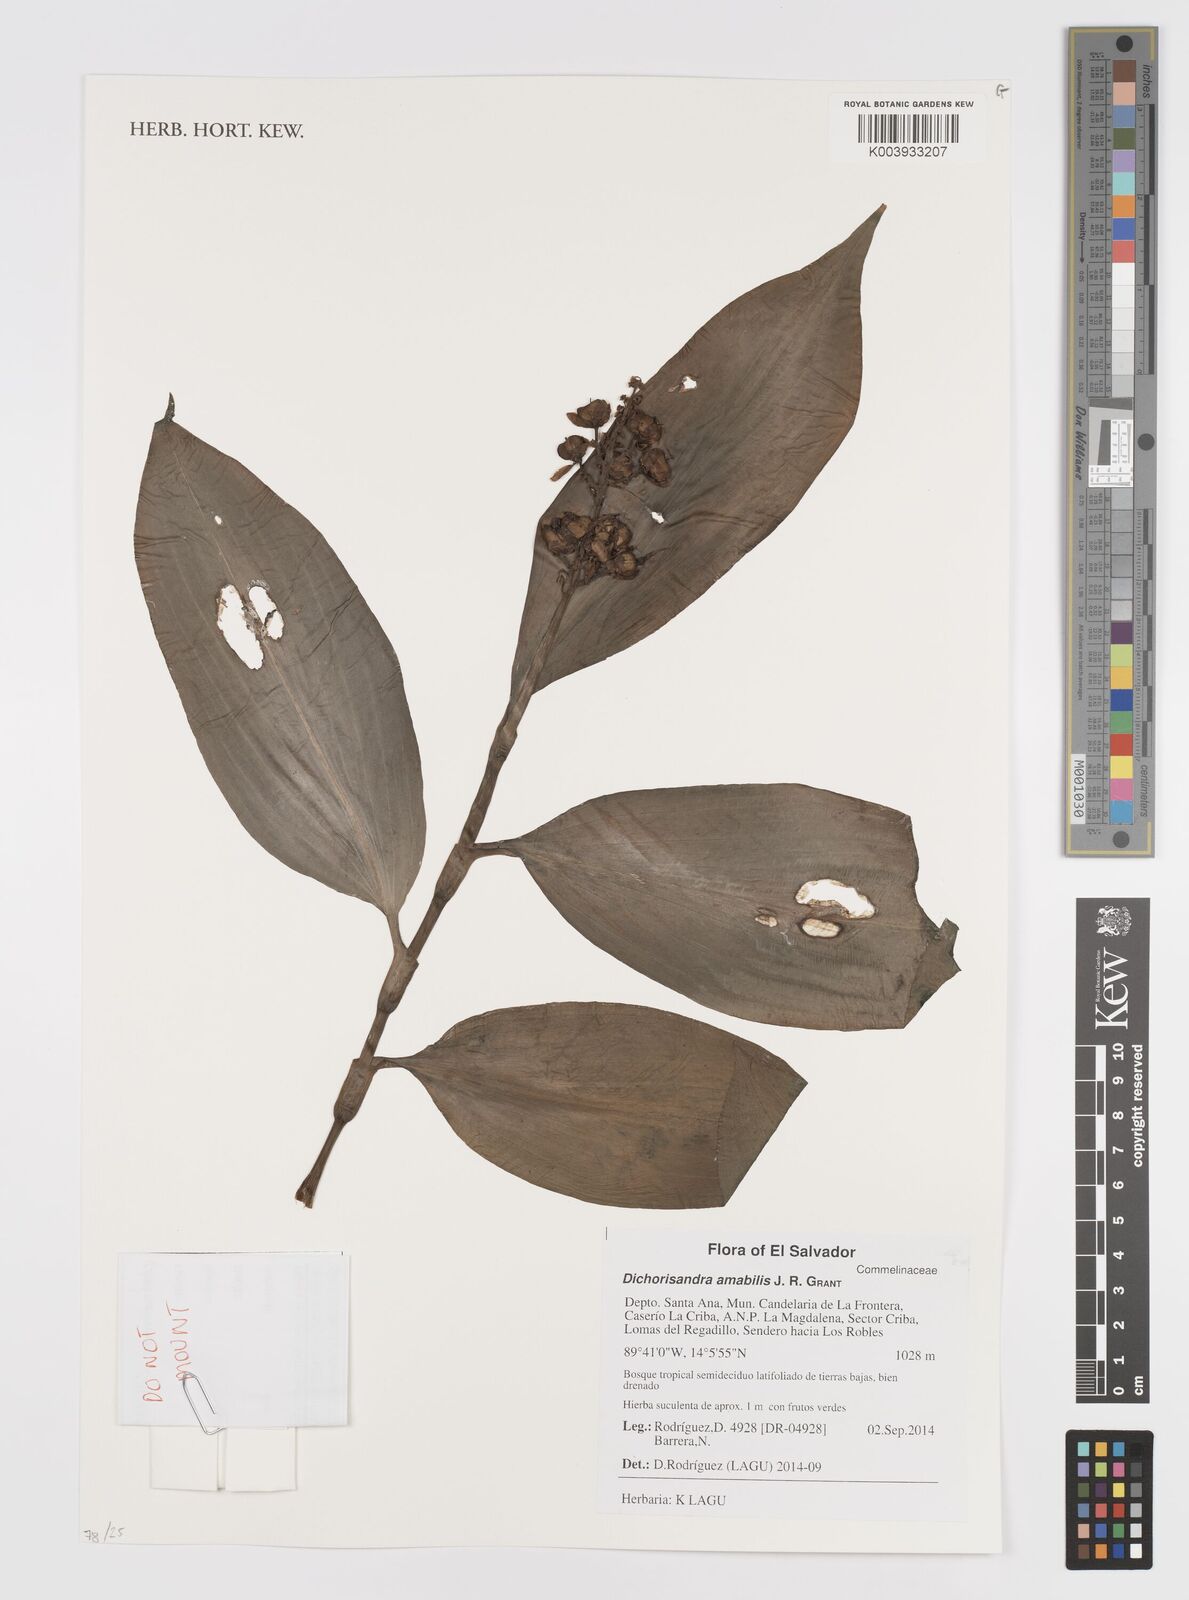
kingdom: Plantae
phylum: Tracheophyta
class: Liliopsida
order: Commelinales
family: Commelinaceae
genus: Dichorisandra
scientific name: Dichorisandra amabilis
